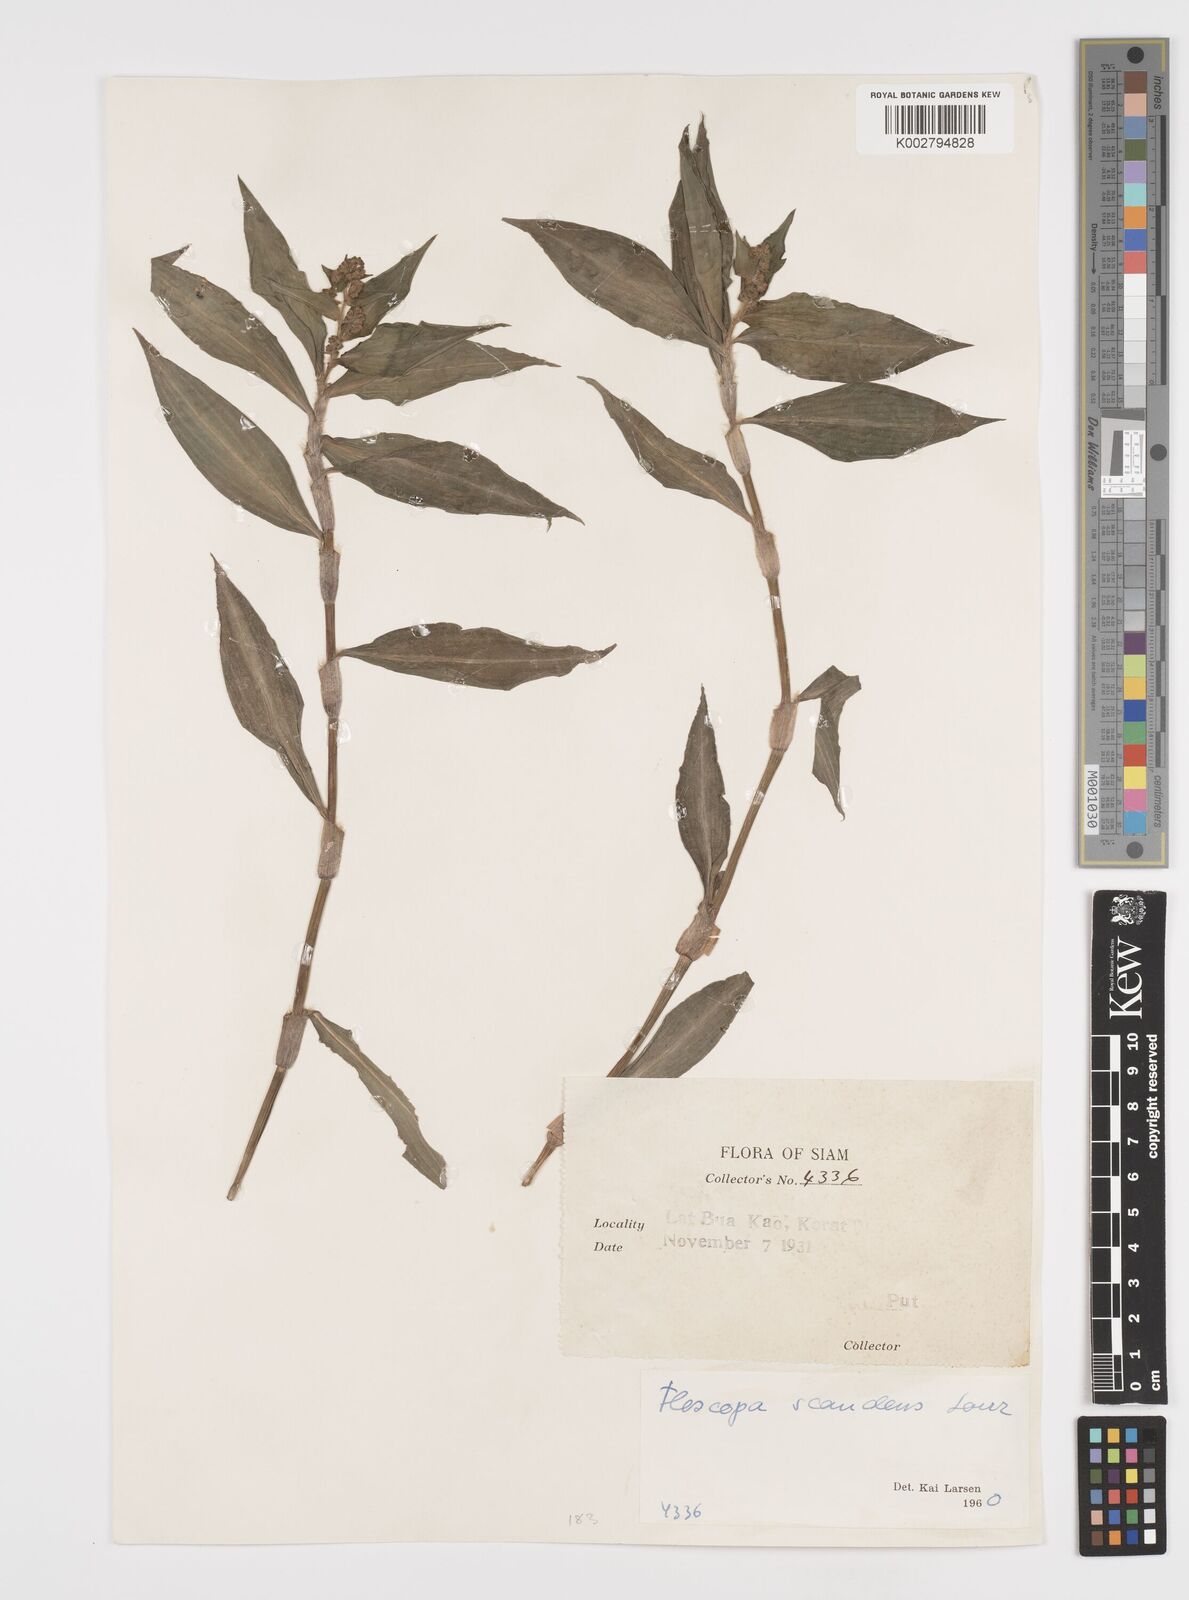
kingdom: Plantae
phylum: Tracheophyta
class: Liliopsida
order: Commelinales
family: Commelinaceae
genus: Floscopa
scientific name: Floscopa scandens
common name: Climbing flower cup
